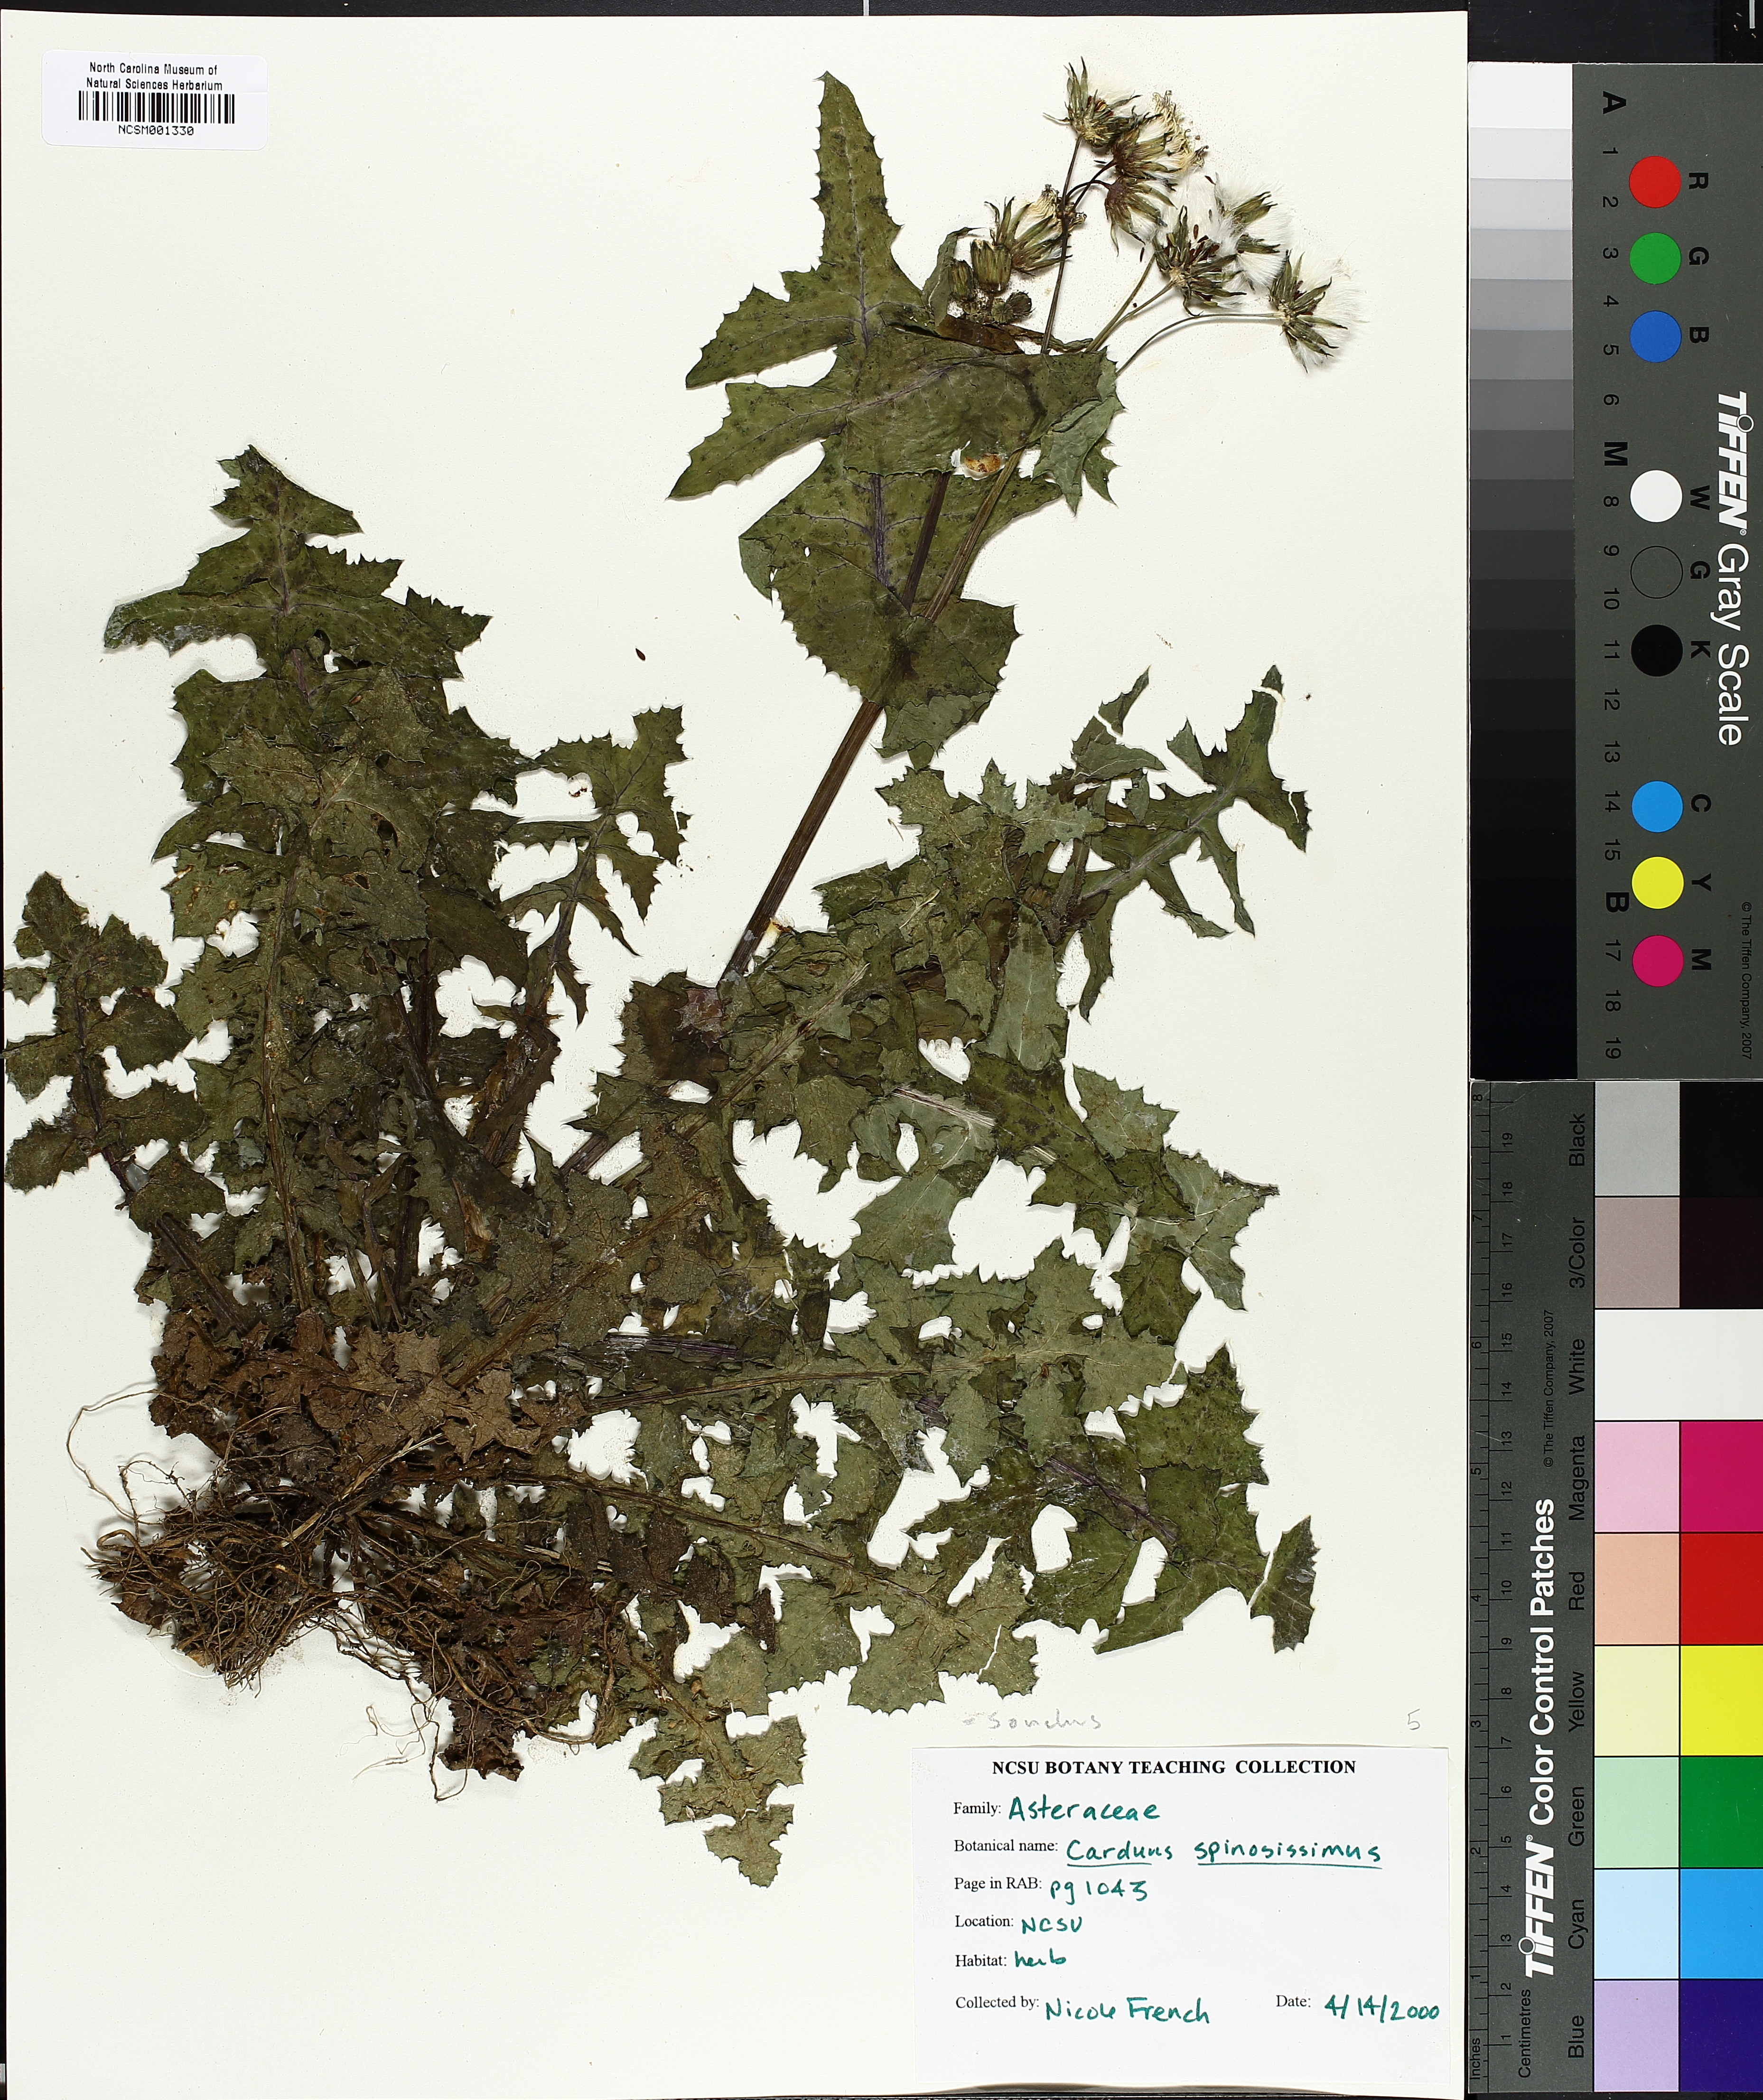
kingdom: Plantae
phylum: Tracheophyta
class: Magnoliopsida
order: Asterales
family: Asteraceae
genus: Cirsium
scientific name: Cirsium horridulum
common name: Bristly thistle
